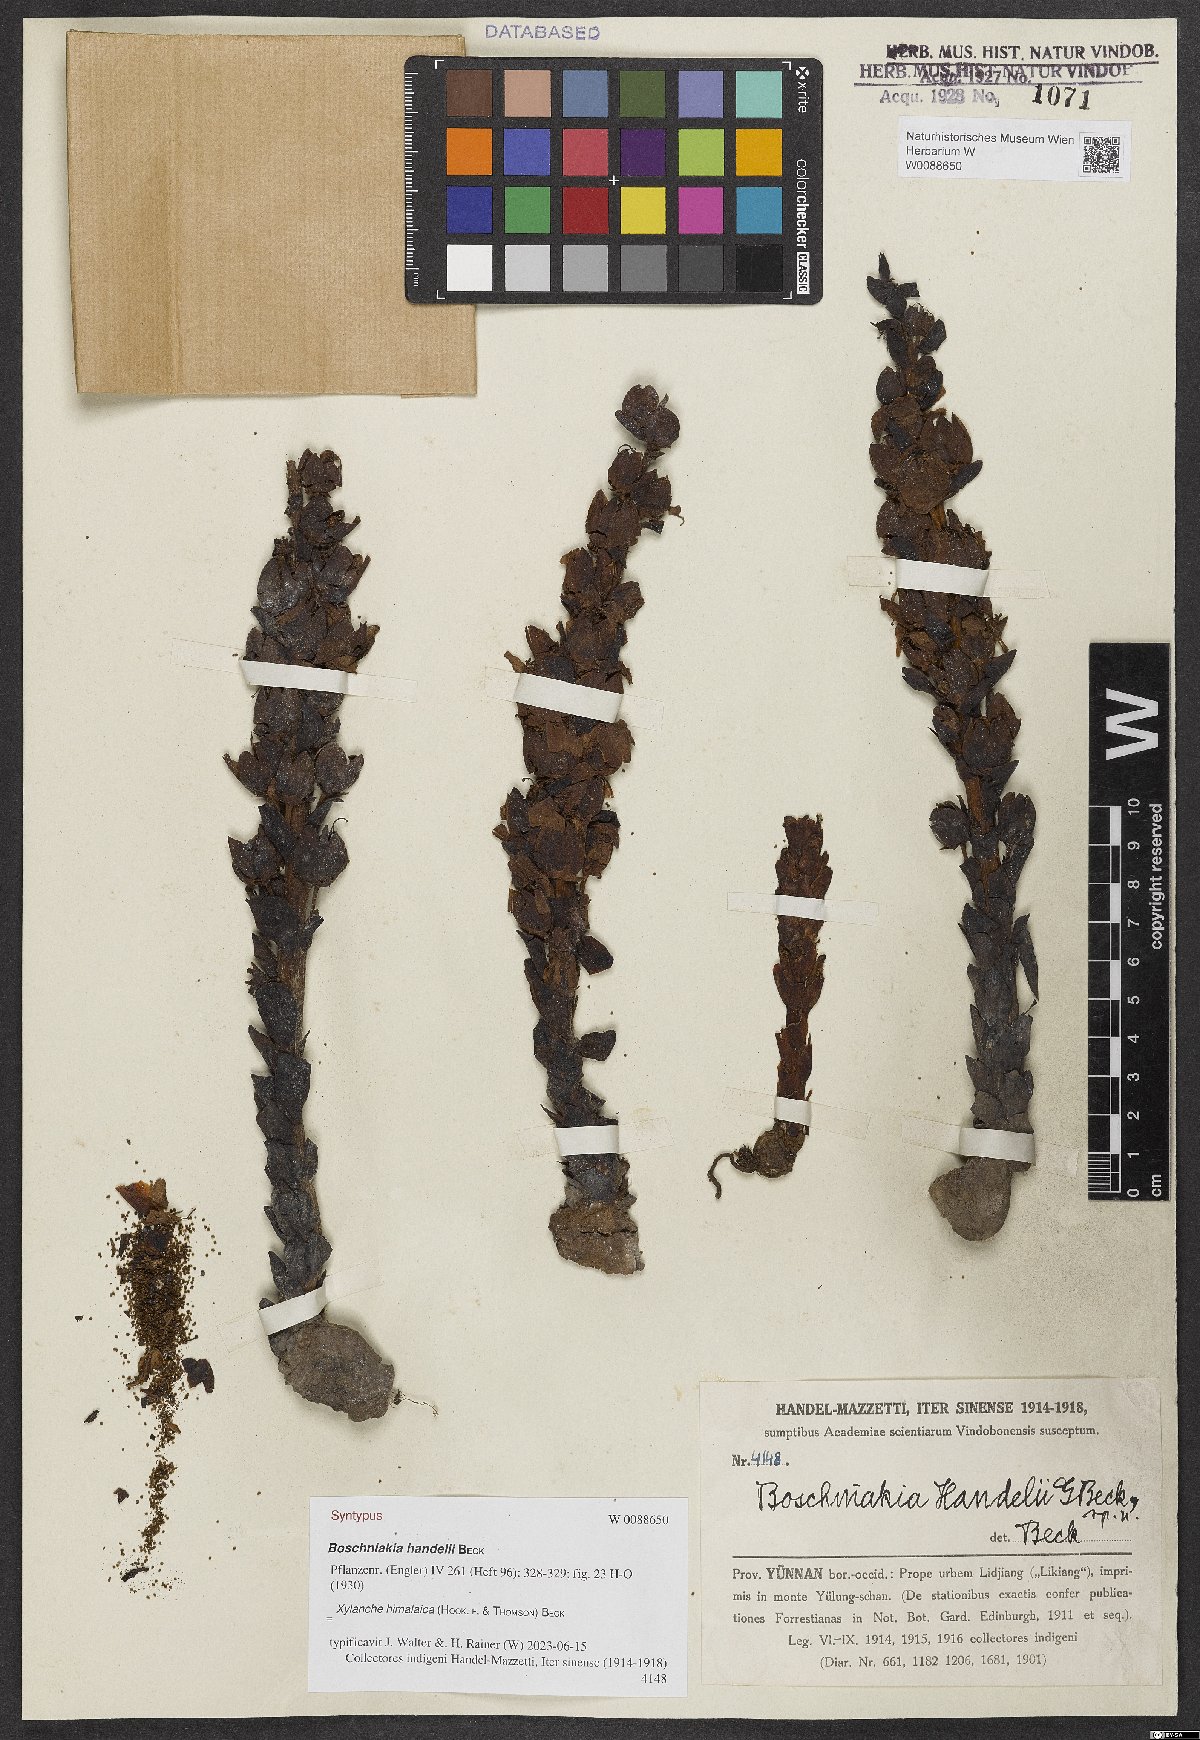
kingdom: Plantae
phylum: Tracheophyta
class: Magnoliopsida
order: Lamiales
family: Orobanchaceae
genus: Boschniakia
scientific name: Boschniakia himalaica
